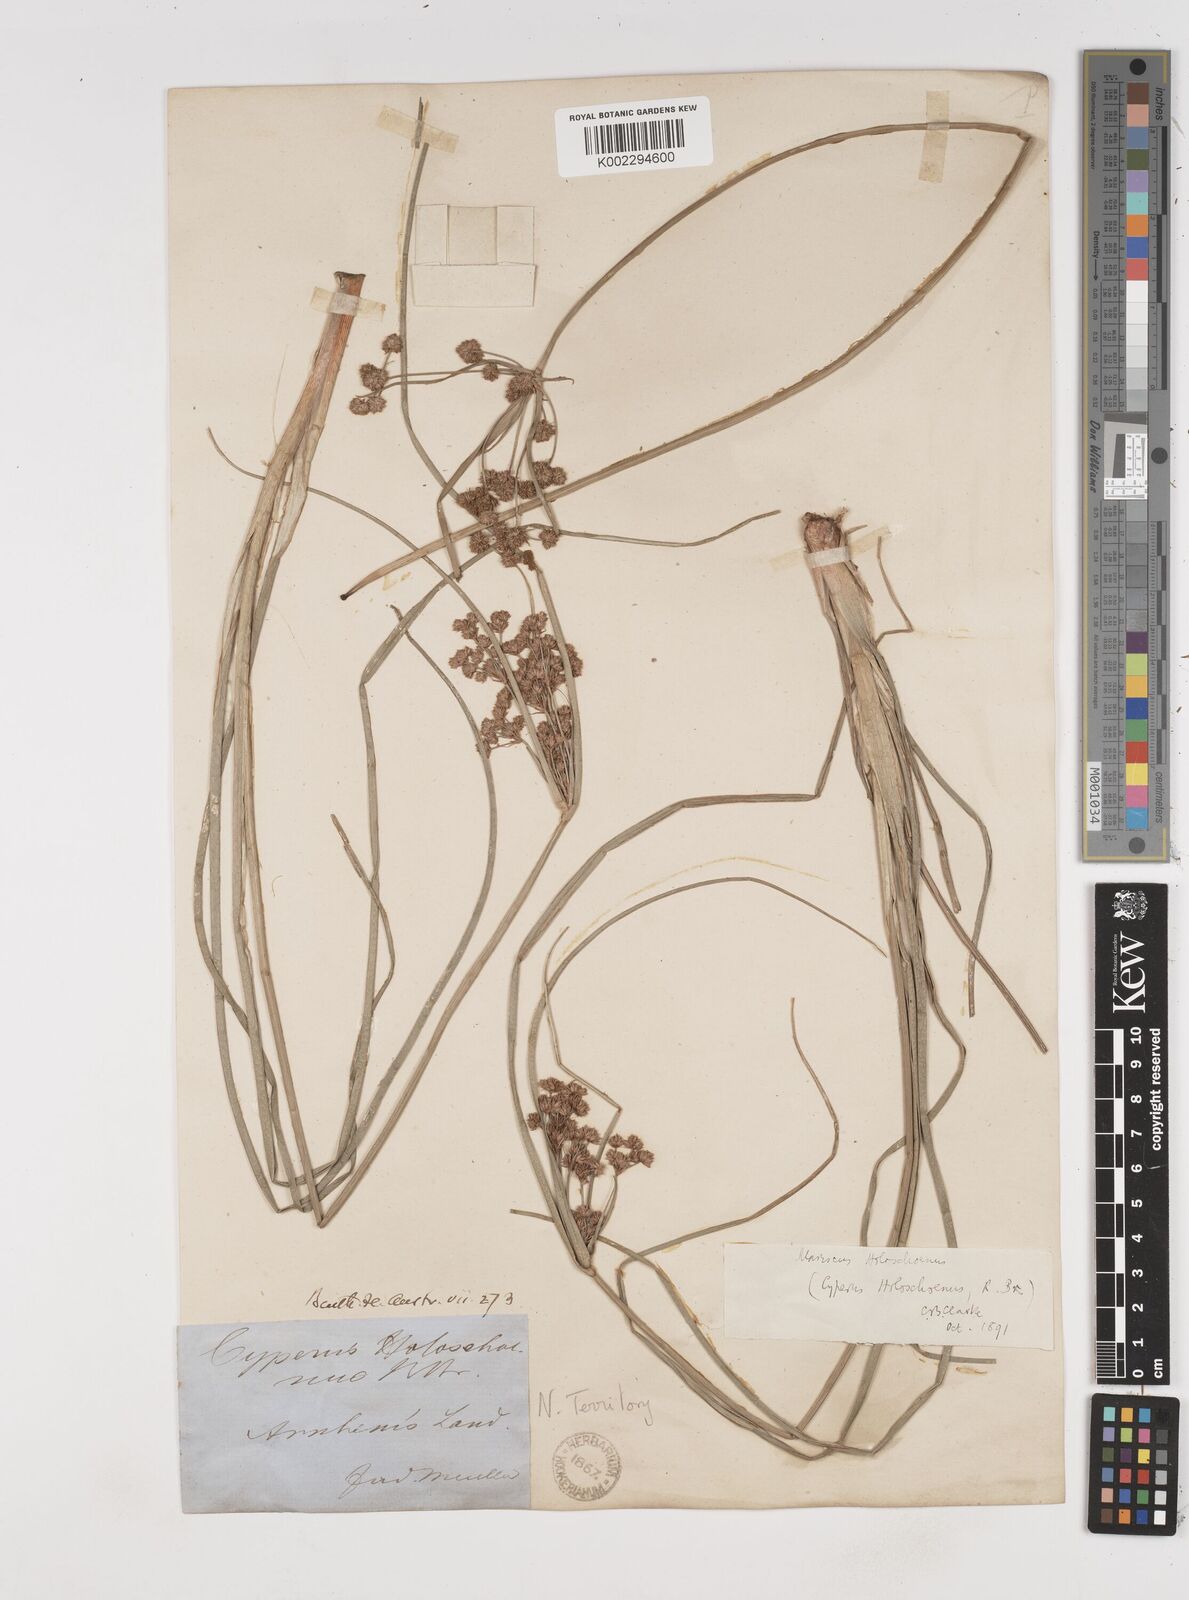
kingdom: Plantae
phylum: Tracheophyta
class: Liliopsida
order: Poales
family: Cyperaceae
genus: Cyperus
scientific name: Cyperus holoschoenus
